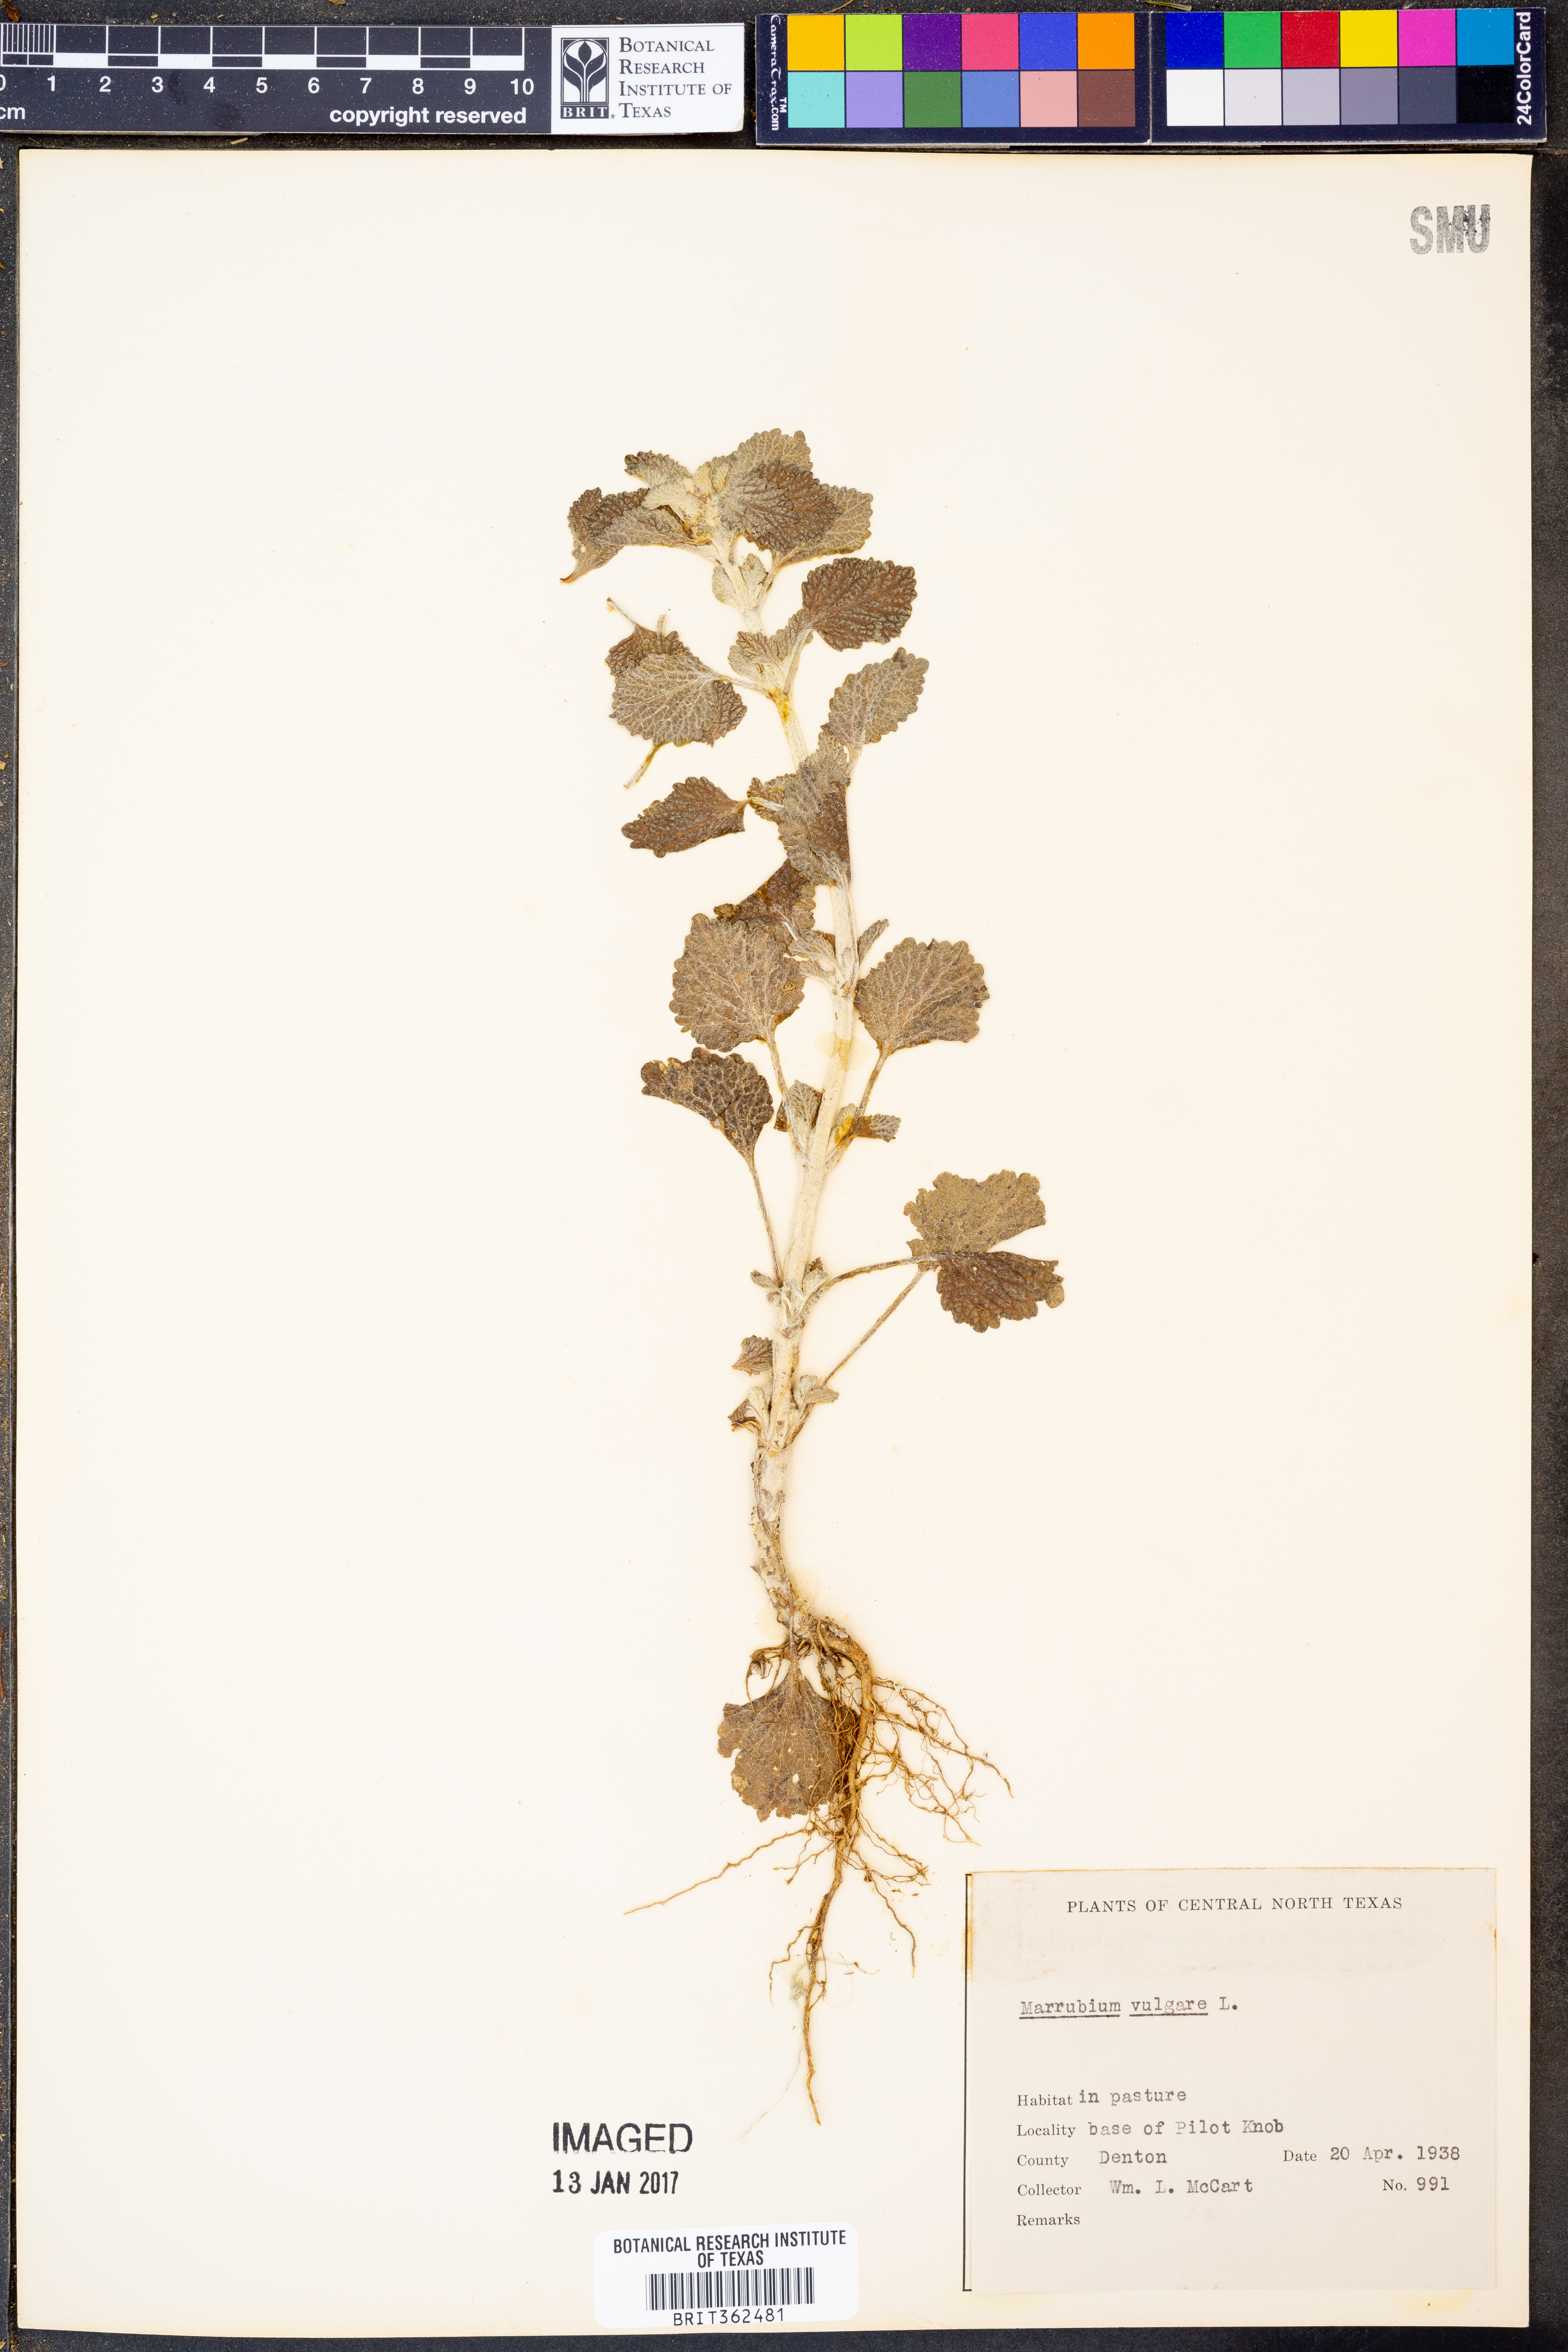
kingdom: Plantae
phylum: Tracheophyta
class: Magnoliopsida
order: Lamiales
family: Lamiaceae
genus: Marrubium
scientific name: Marrubium vulgare
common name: Horehound
